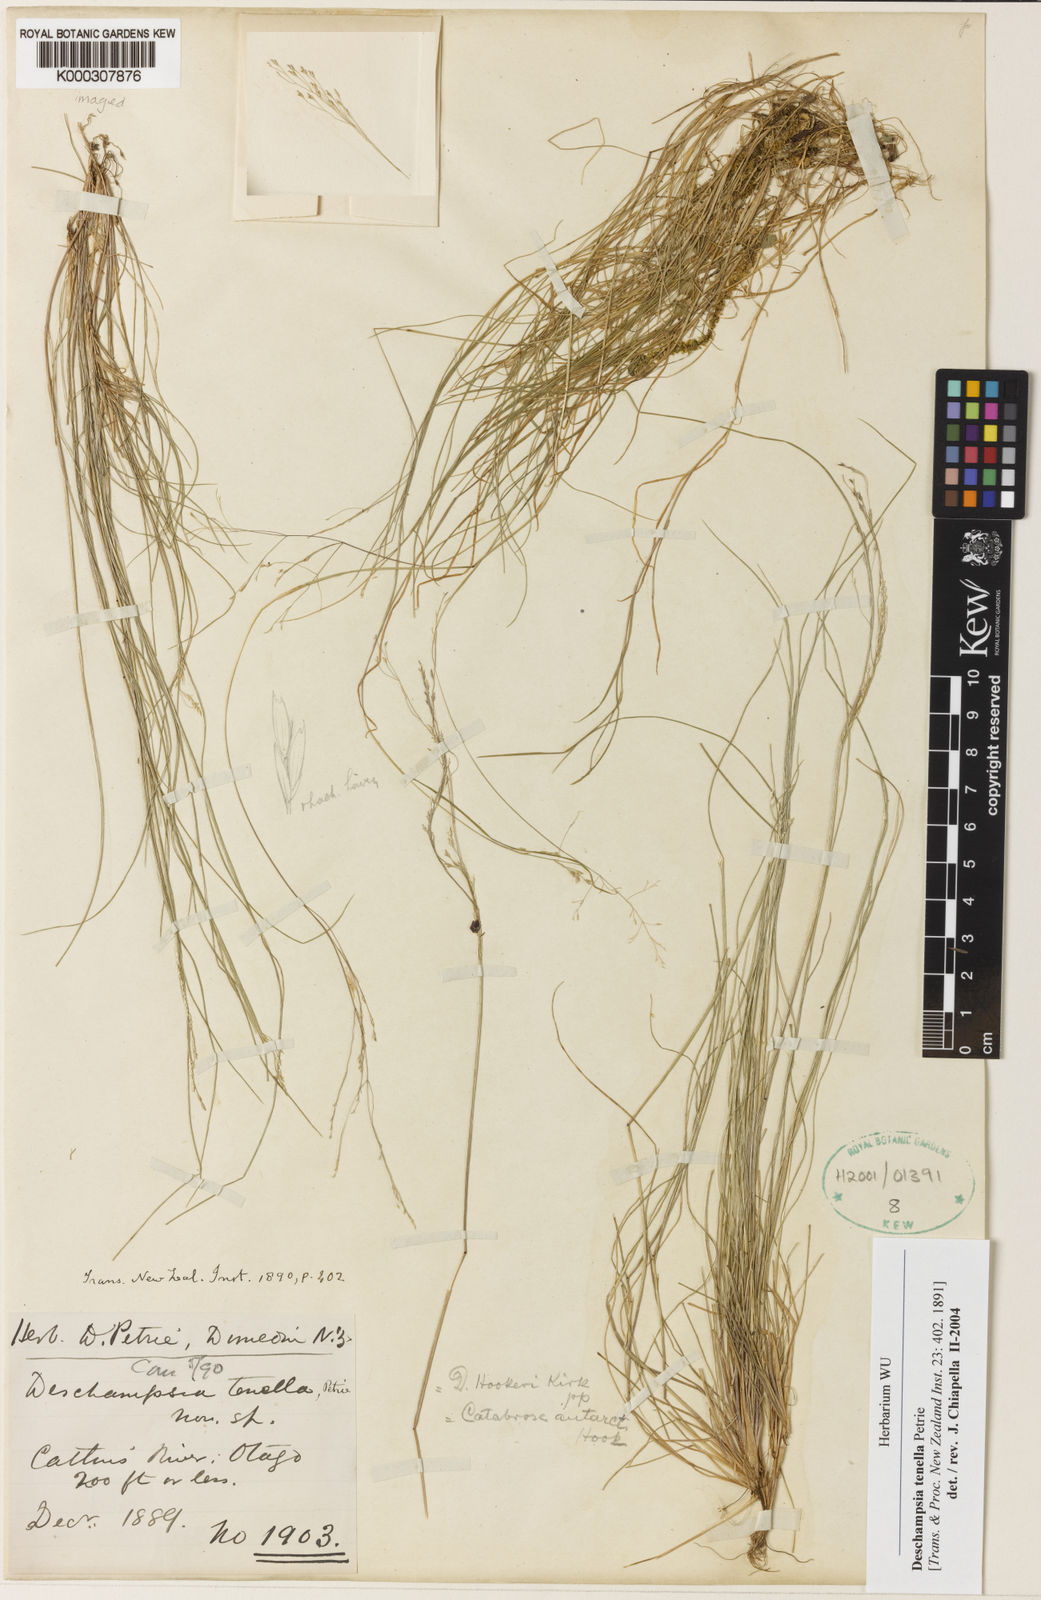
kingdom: Plantae
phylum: Tracheophyta
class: Liliopsida
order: Poales
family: Poaceae
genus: Deschampsia
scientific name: Deschampsia tenella
